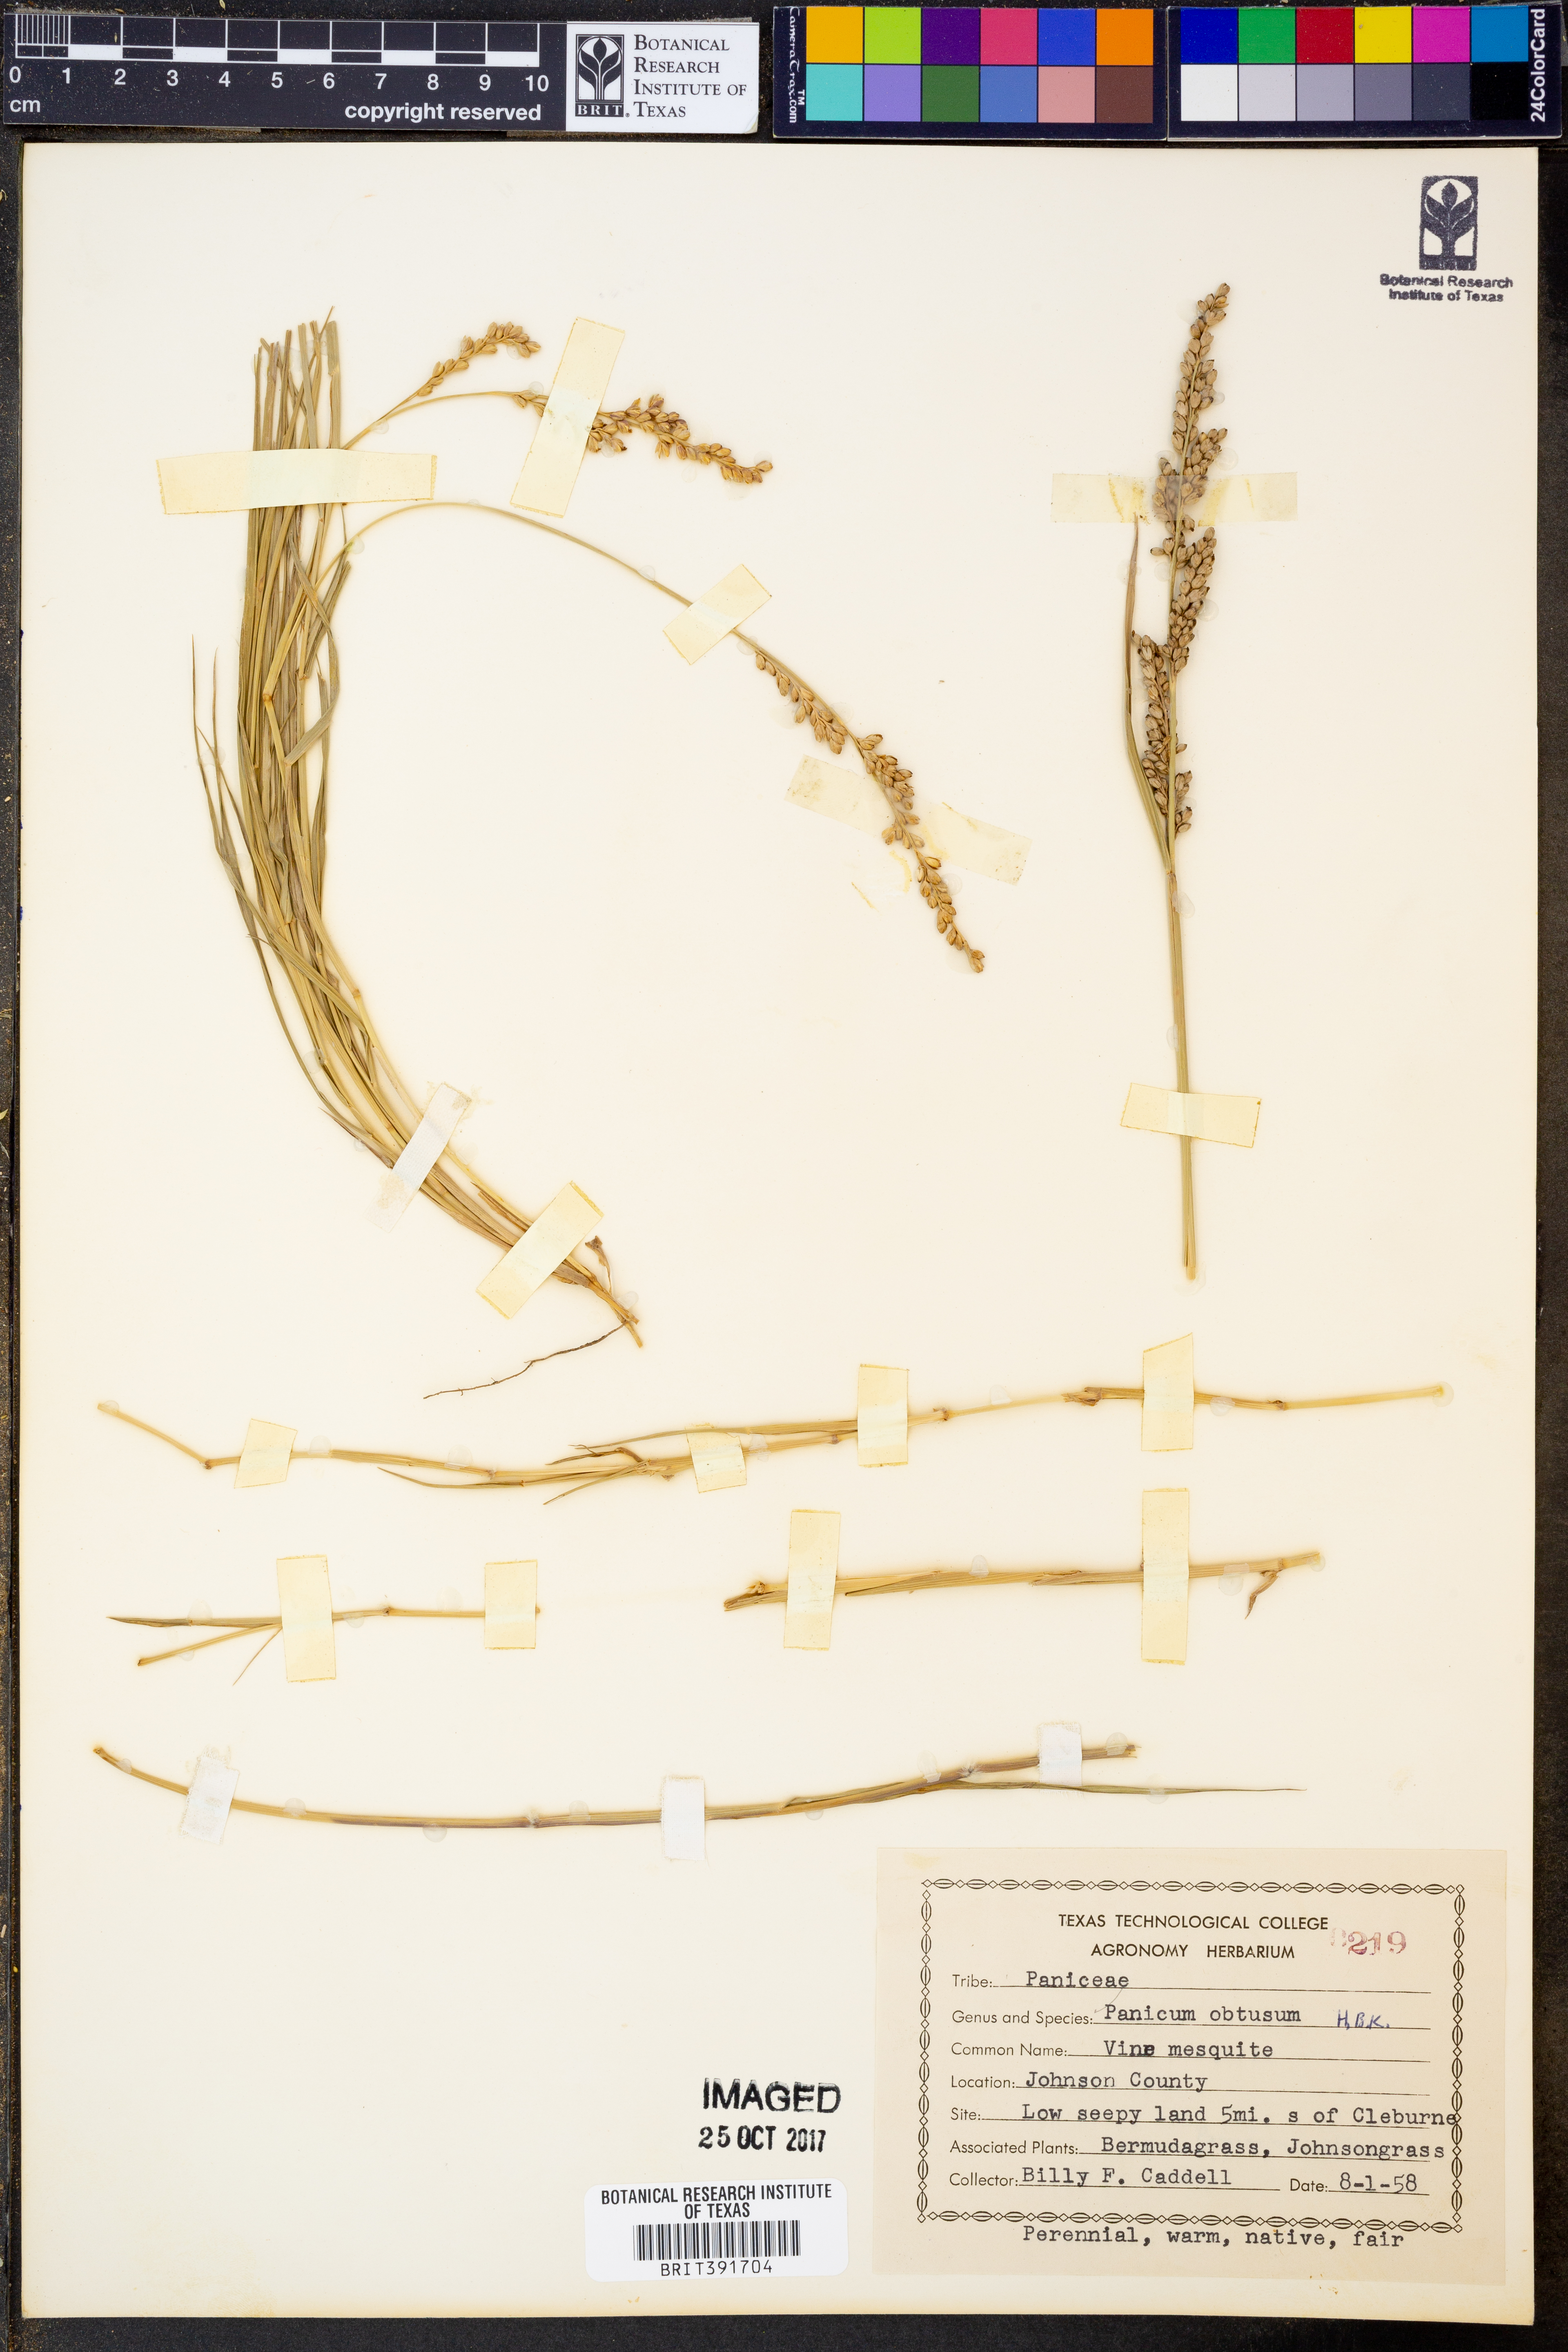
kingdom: Plantae
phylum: Tracheophyta
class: Liliopsida
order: Poales
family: Poaceae
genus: Hopia
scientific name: Hopia obtusa
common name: Vine-mesquite
